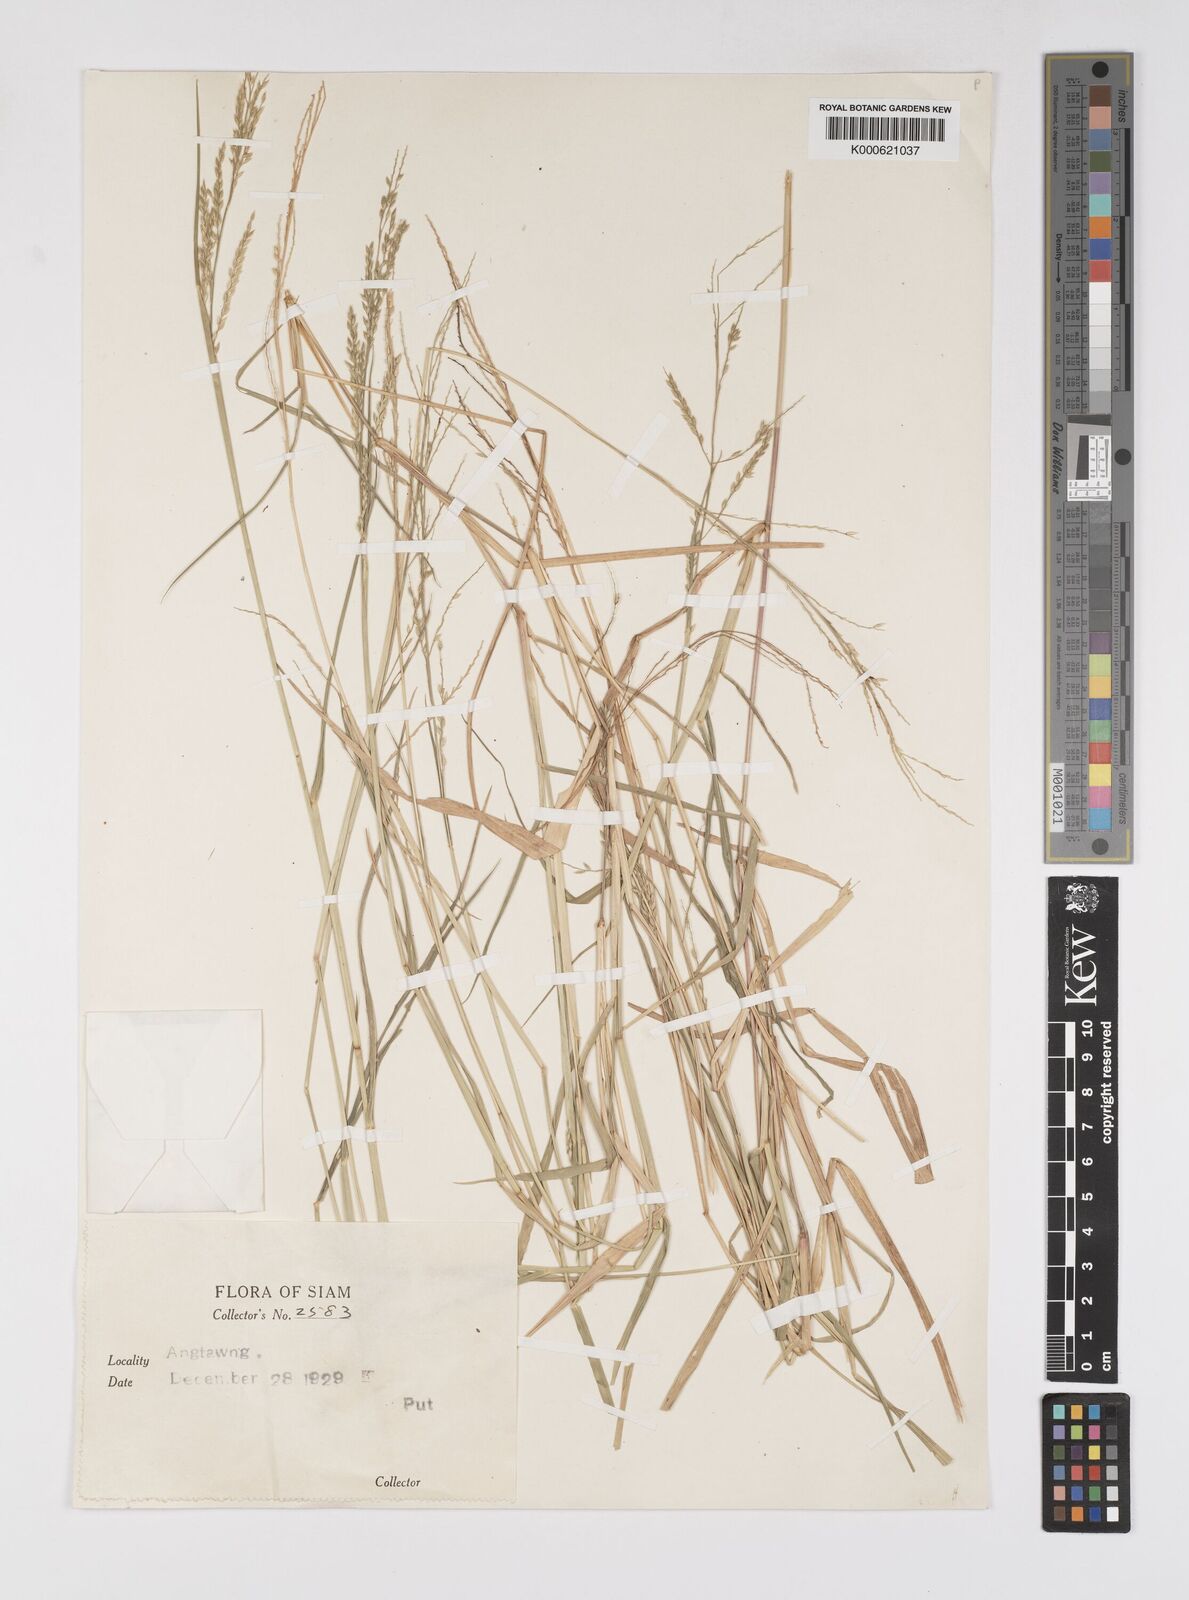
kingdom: Plantae
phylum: Tracheophyta
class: Liliopsida
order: Poales
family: Poaceae
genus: Eriochloa
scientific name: Eriochloa procera
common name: Spring grass
